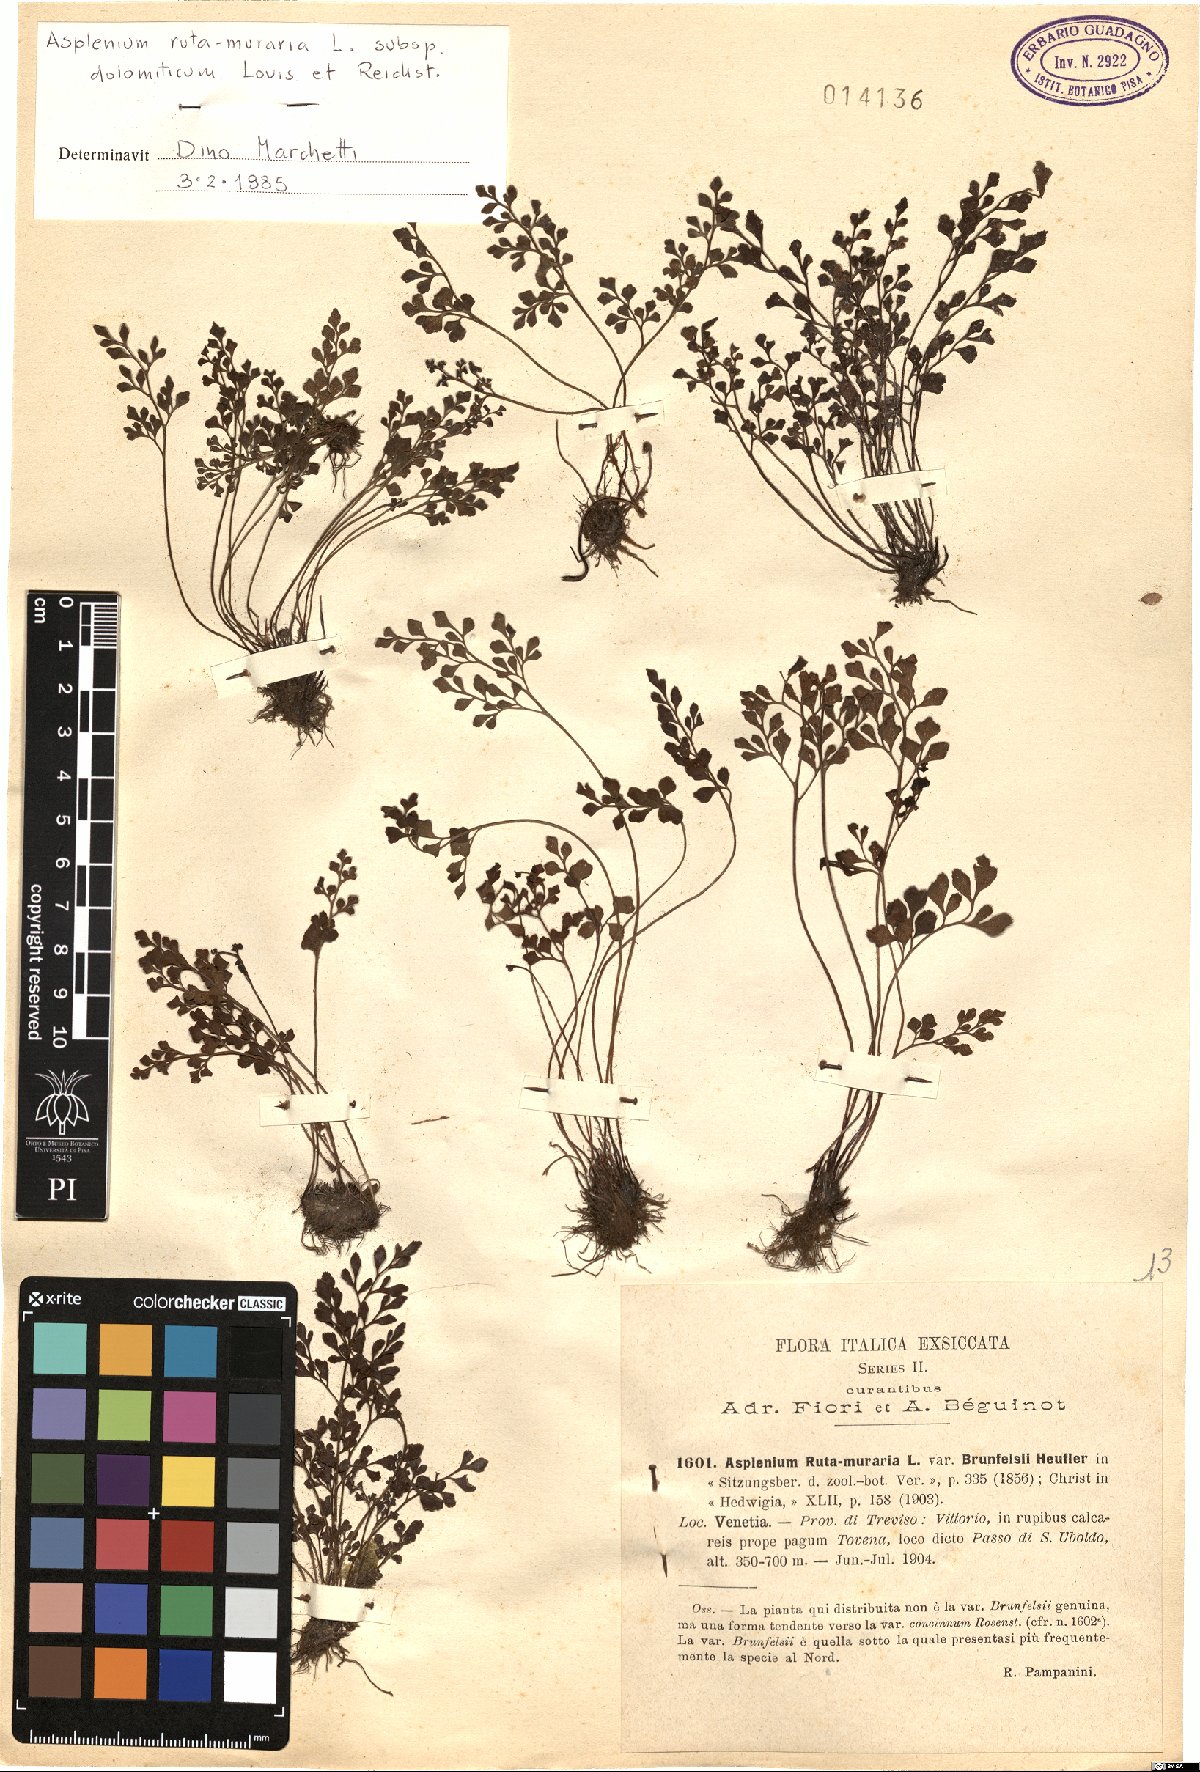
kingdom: Plantae
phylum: Tracheophyta
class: Polypodiopsida
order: Polypodiales
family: Aspleniaceae
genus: Asplenium
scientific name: Asplenium ruta-muraria
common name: Wall-rue
